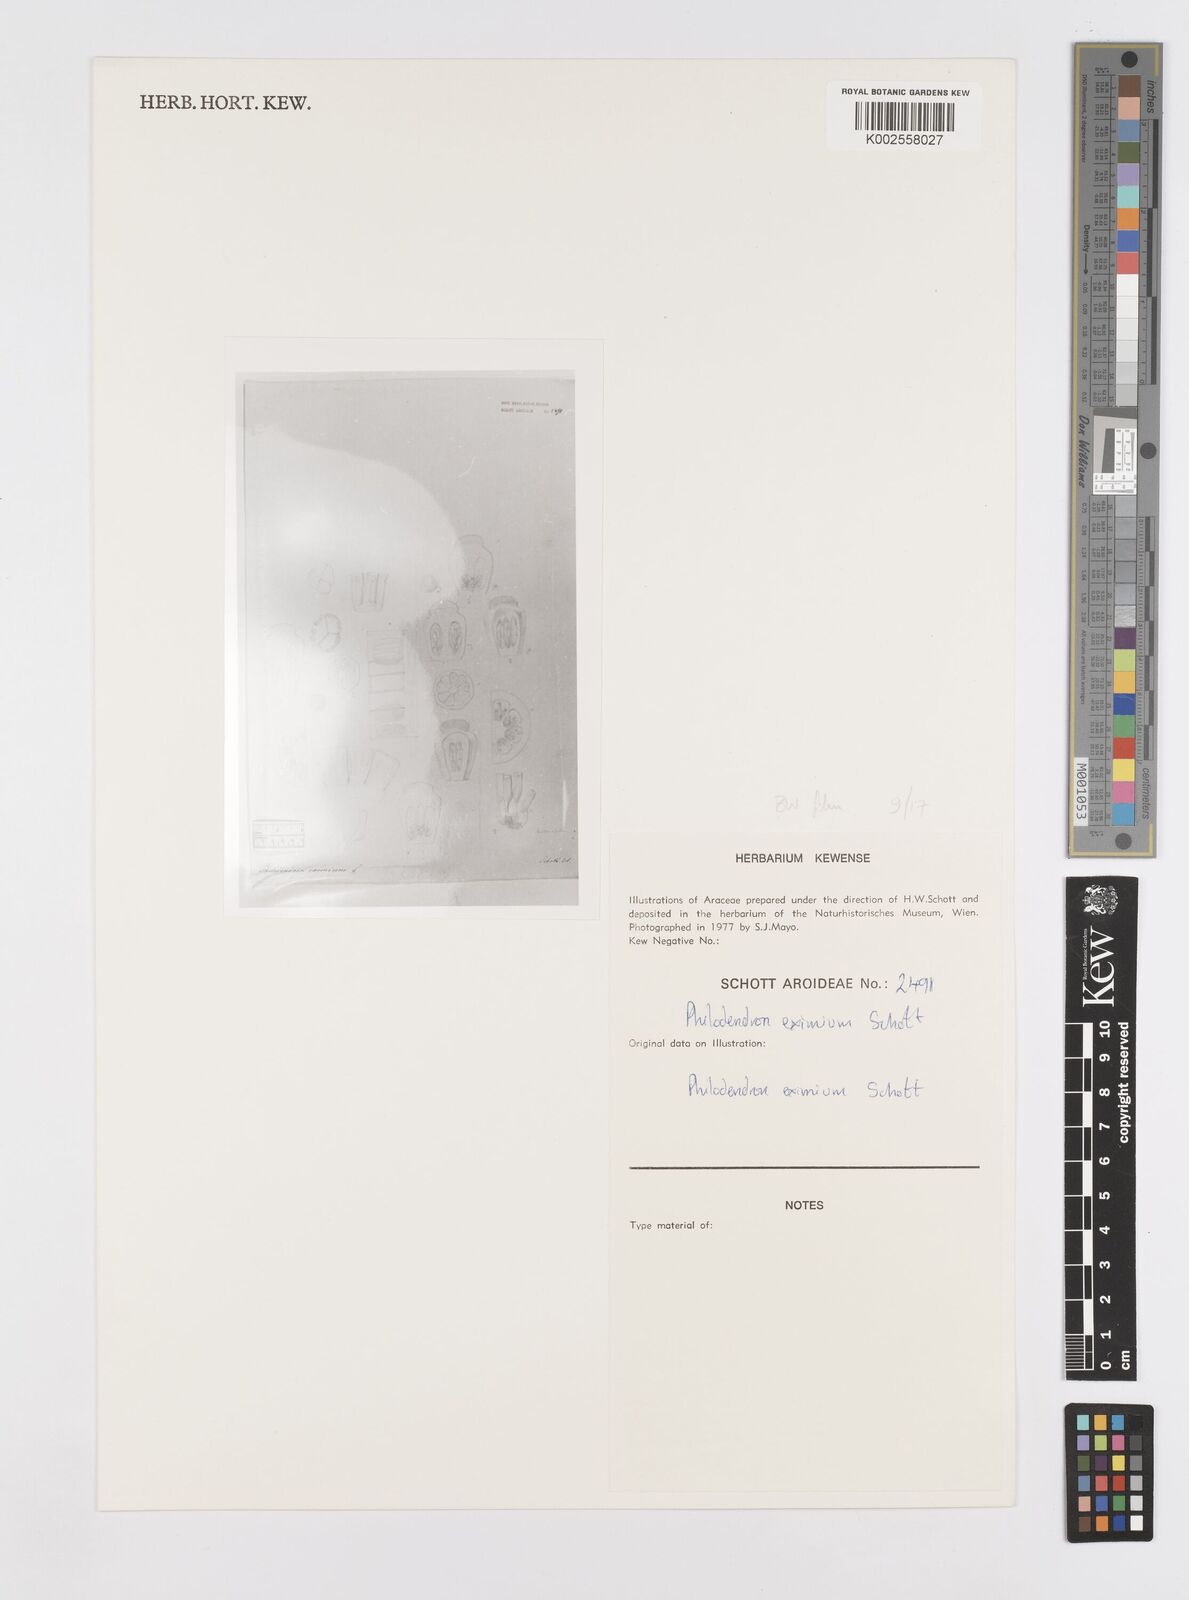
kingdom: Plantae
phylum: Tracheophyta
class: Liliopsida
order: Alismatales
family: Araceae
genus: Philodendron
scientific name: Philodendron eximium
